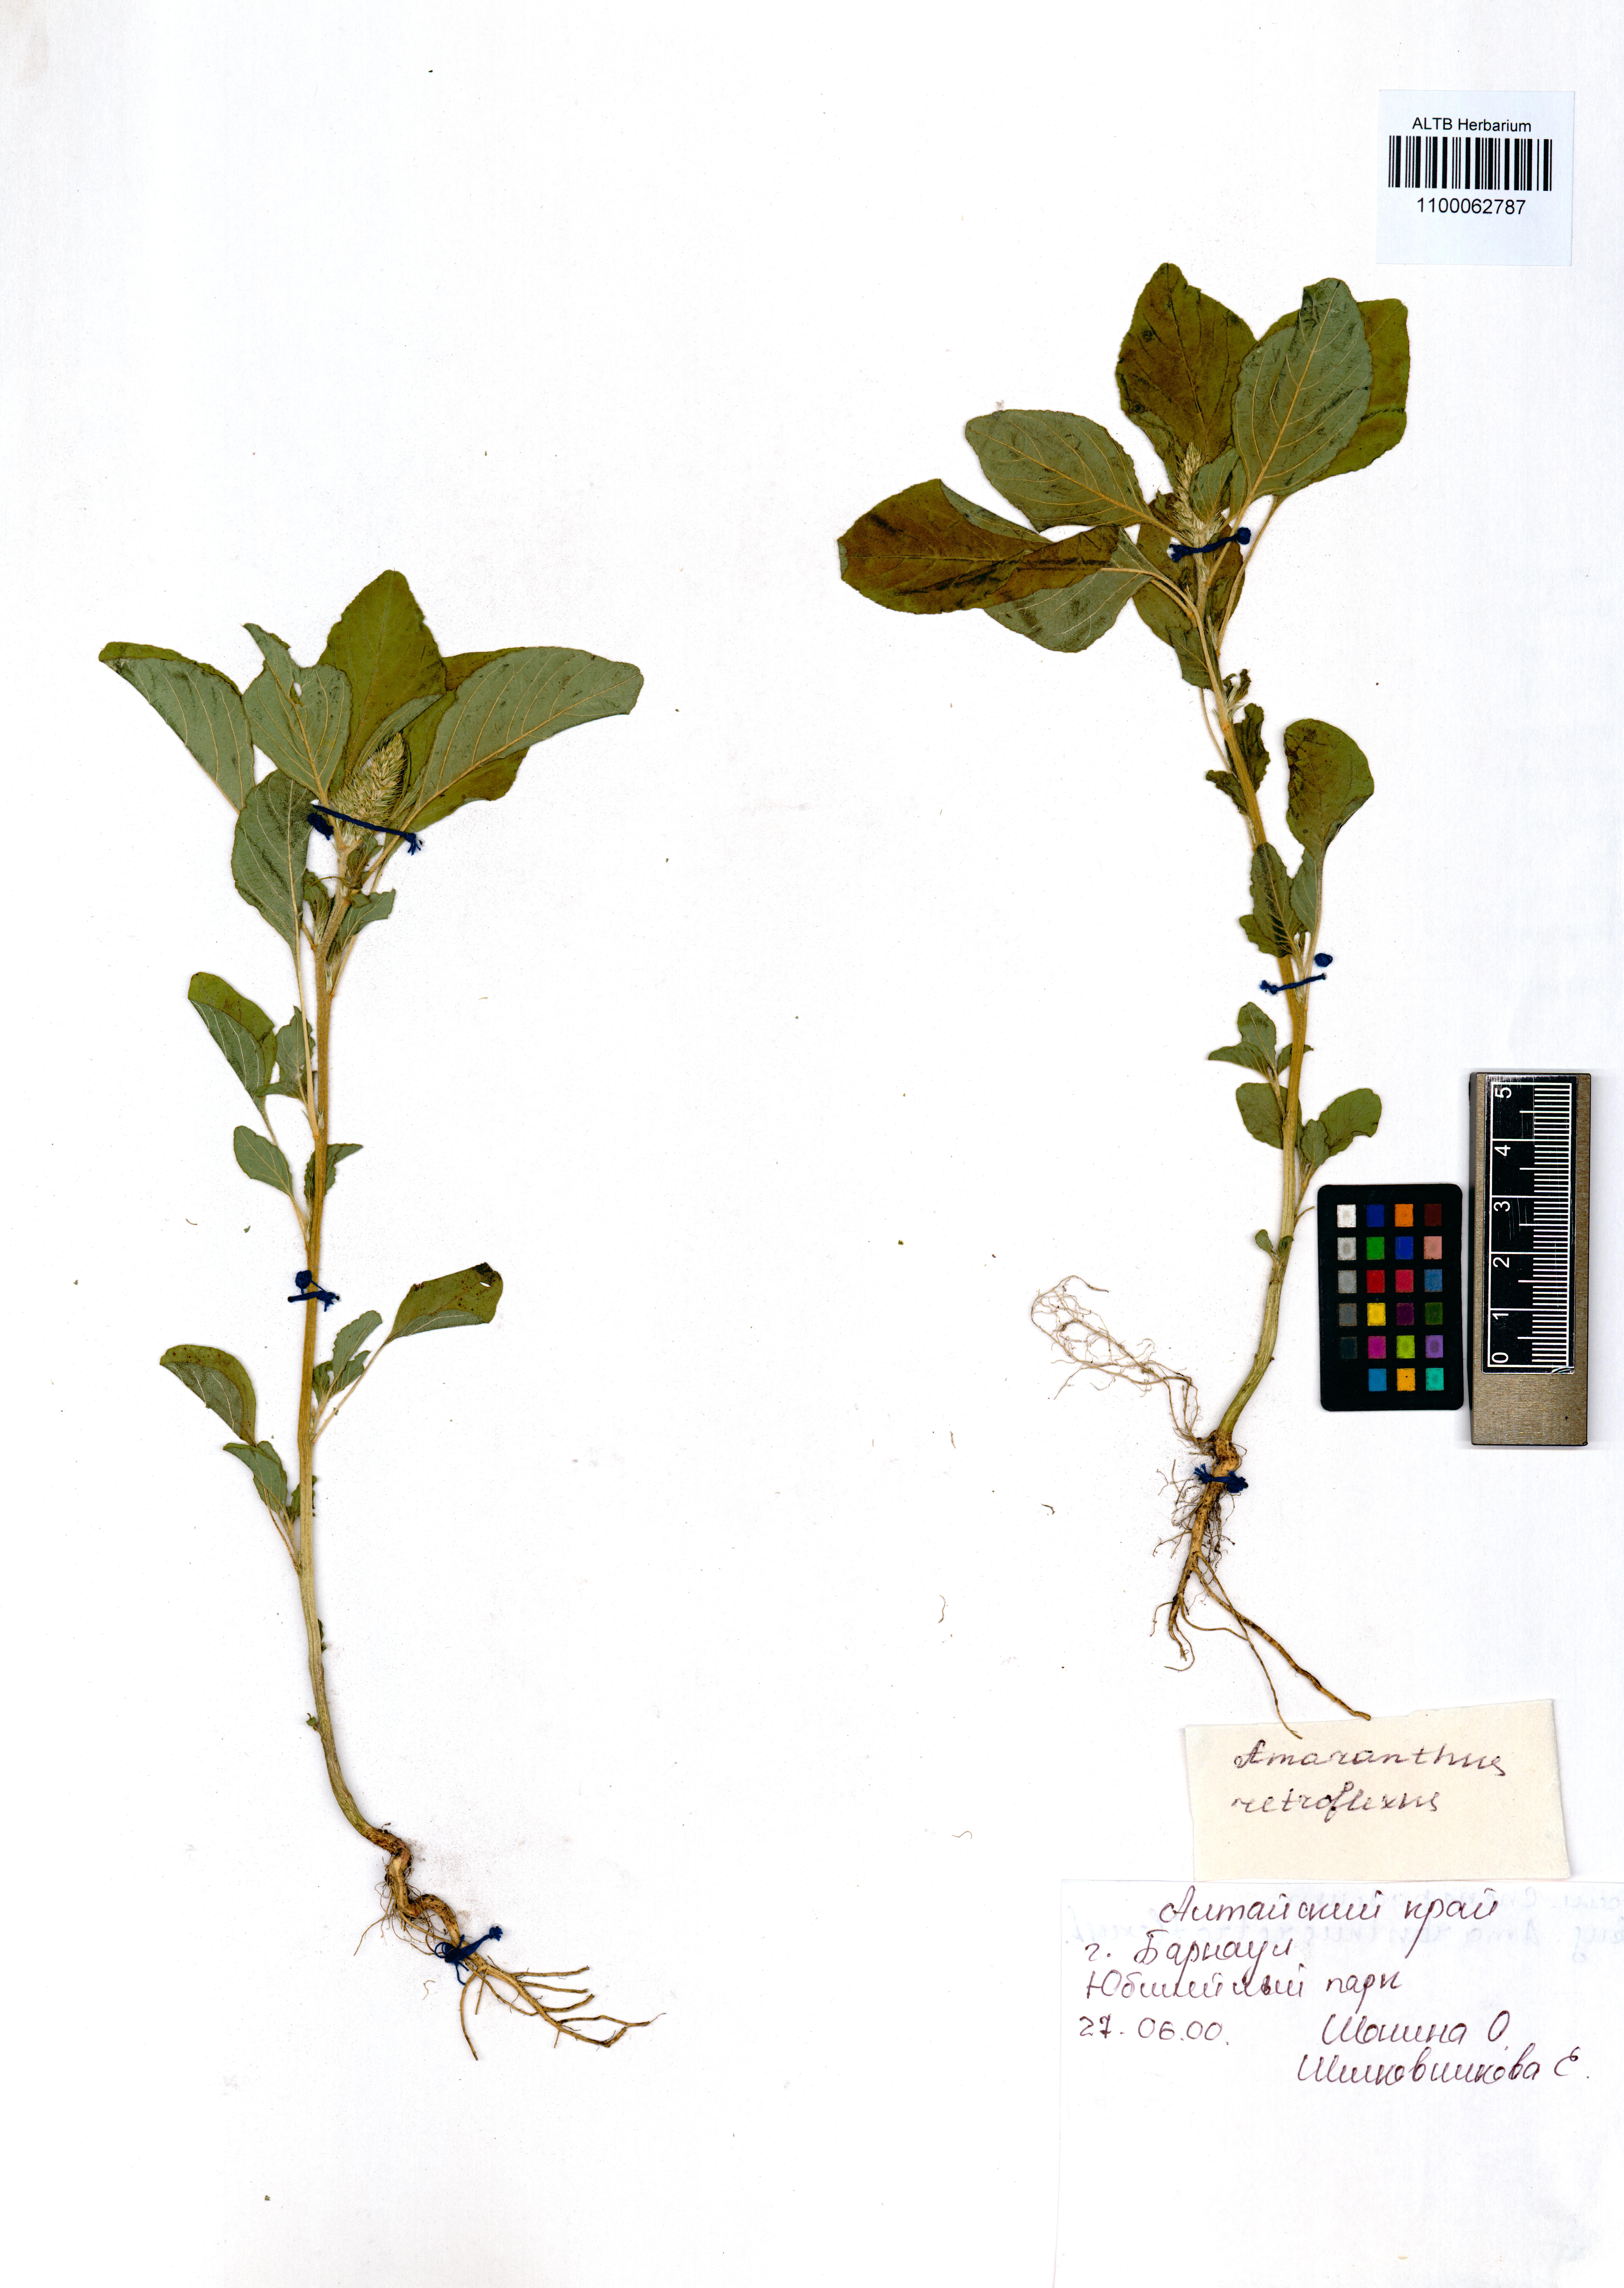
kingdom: Plantae
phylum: Tracheophyta
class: Magnoliopsida
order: Caryophyllales
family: Amaranthaceae
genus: Amaranthus
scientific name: Amaranthus retroflexus
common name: Redroot amaranth
